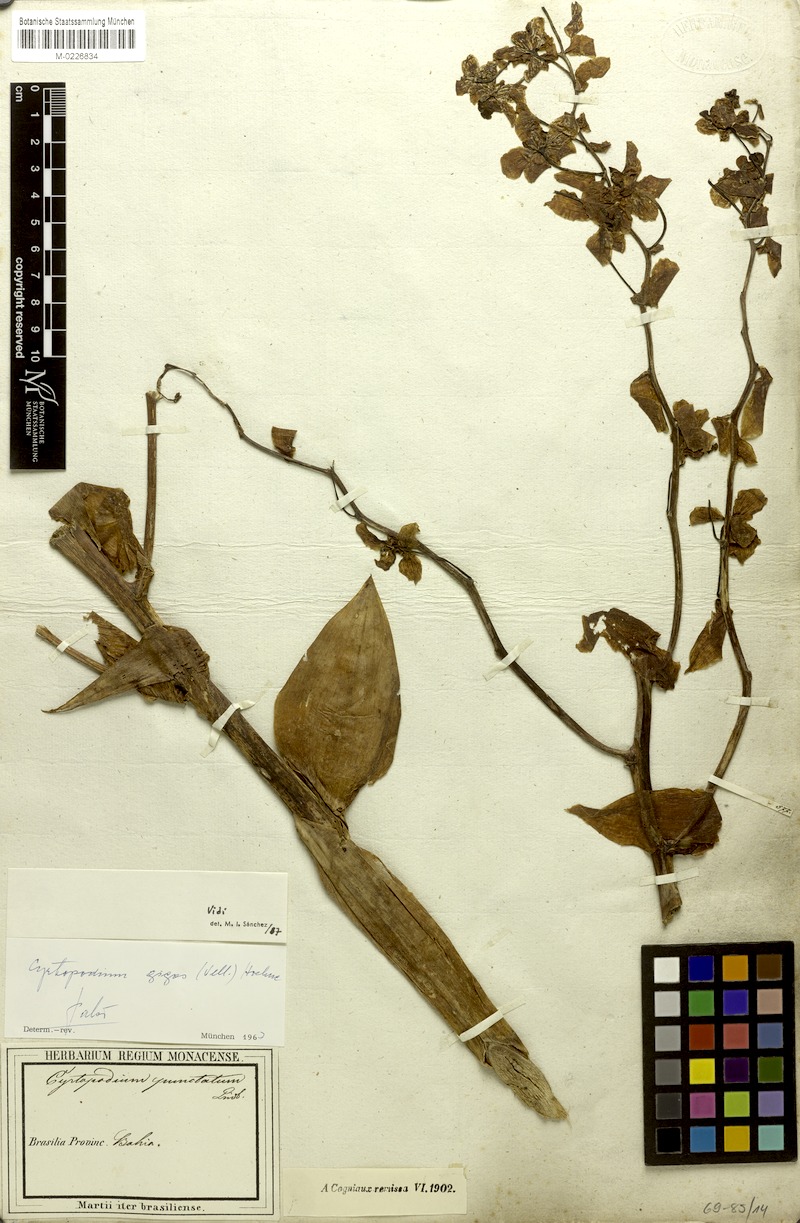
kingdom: Plantae
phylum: Tracheophyta
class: Liliopsida
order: Asparagales
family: Orchidaceae
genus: Cyrtopodium
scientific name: Cyrtopodium gigas
